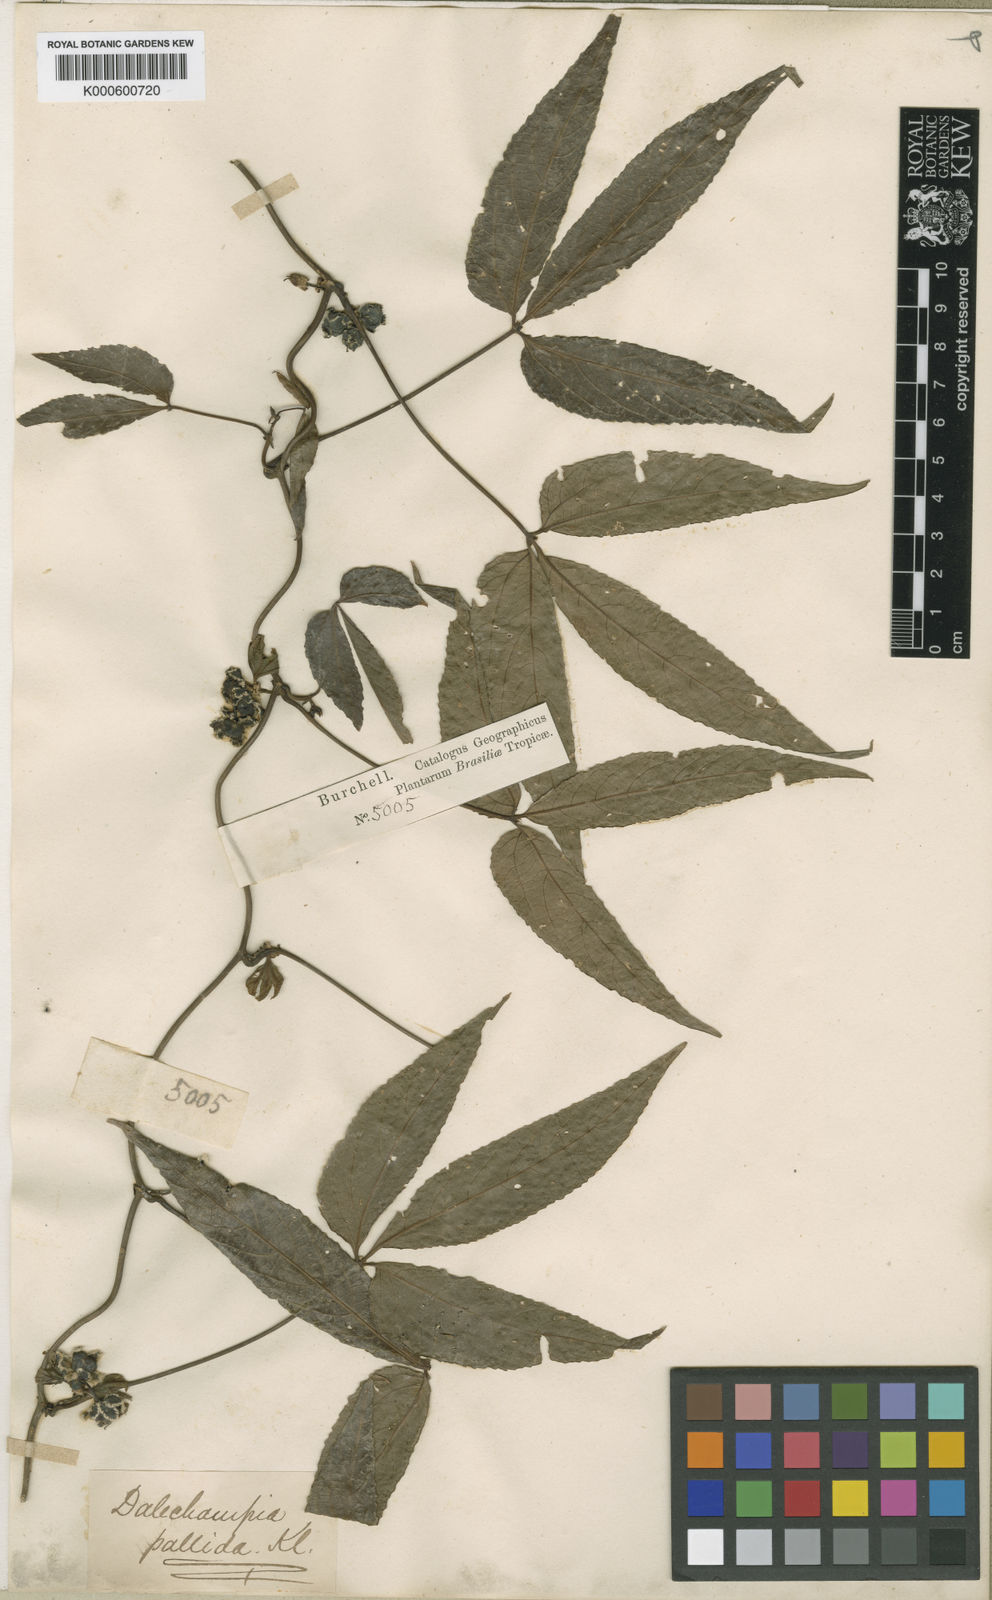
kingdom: Plantae
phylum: Tracheophyta
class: Magnoliopsida
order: Malpighiales
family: Euphorbiaceae
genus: Dalechampia
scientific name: Dalechampia
